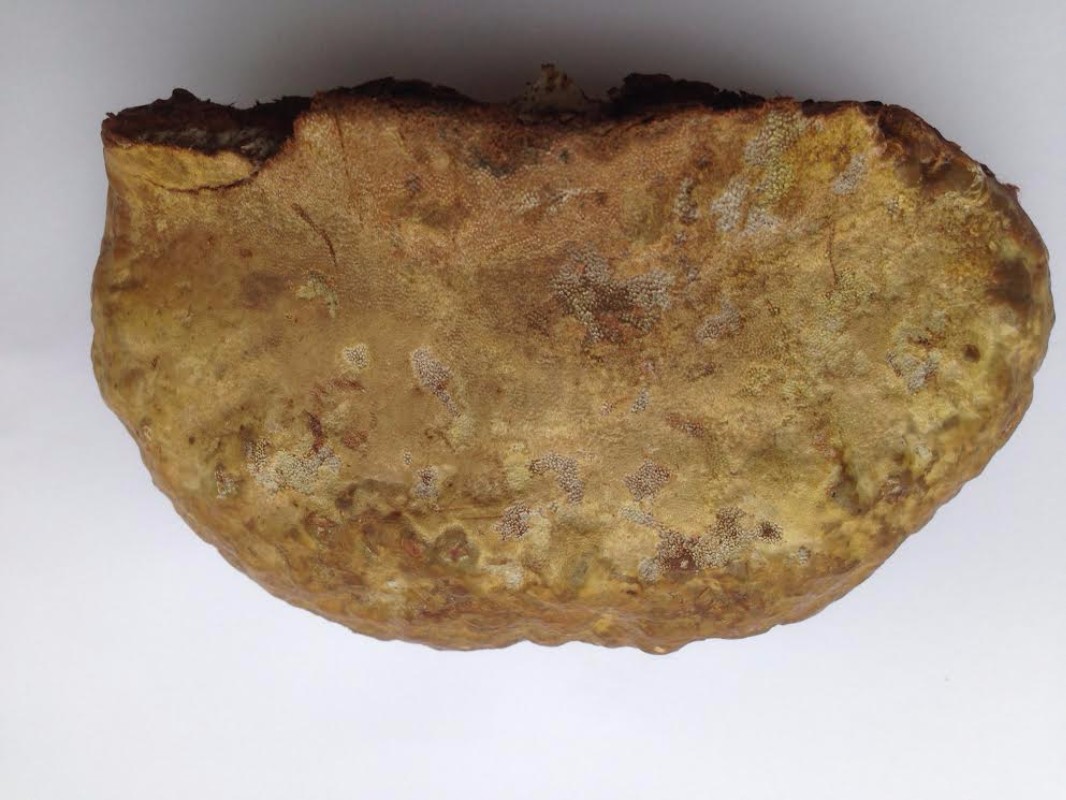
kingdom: Fungi
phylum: Basidiomycota
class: Agaricomycetes
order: Polyporales
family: Polyporaceae
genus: Ganoderma
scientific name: Ganoderma pfeifferi
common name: kobberrød lakporesvamp
